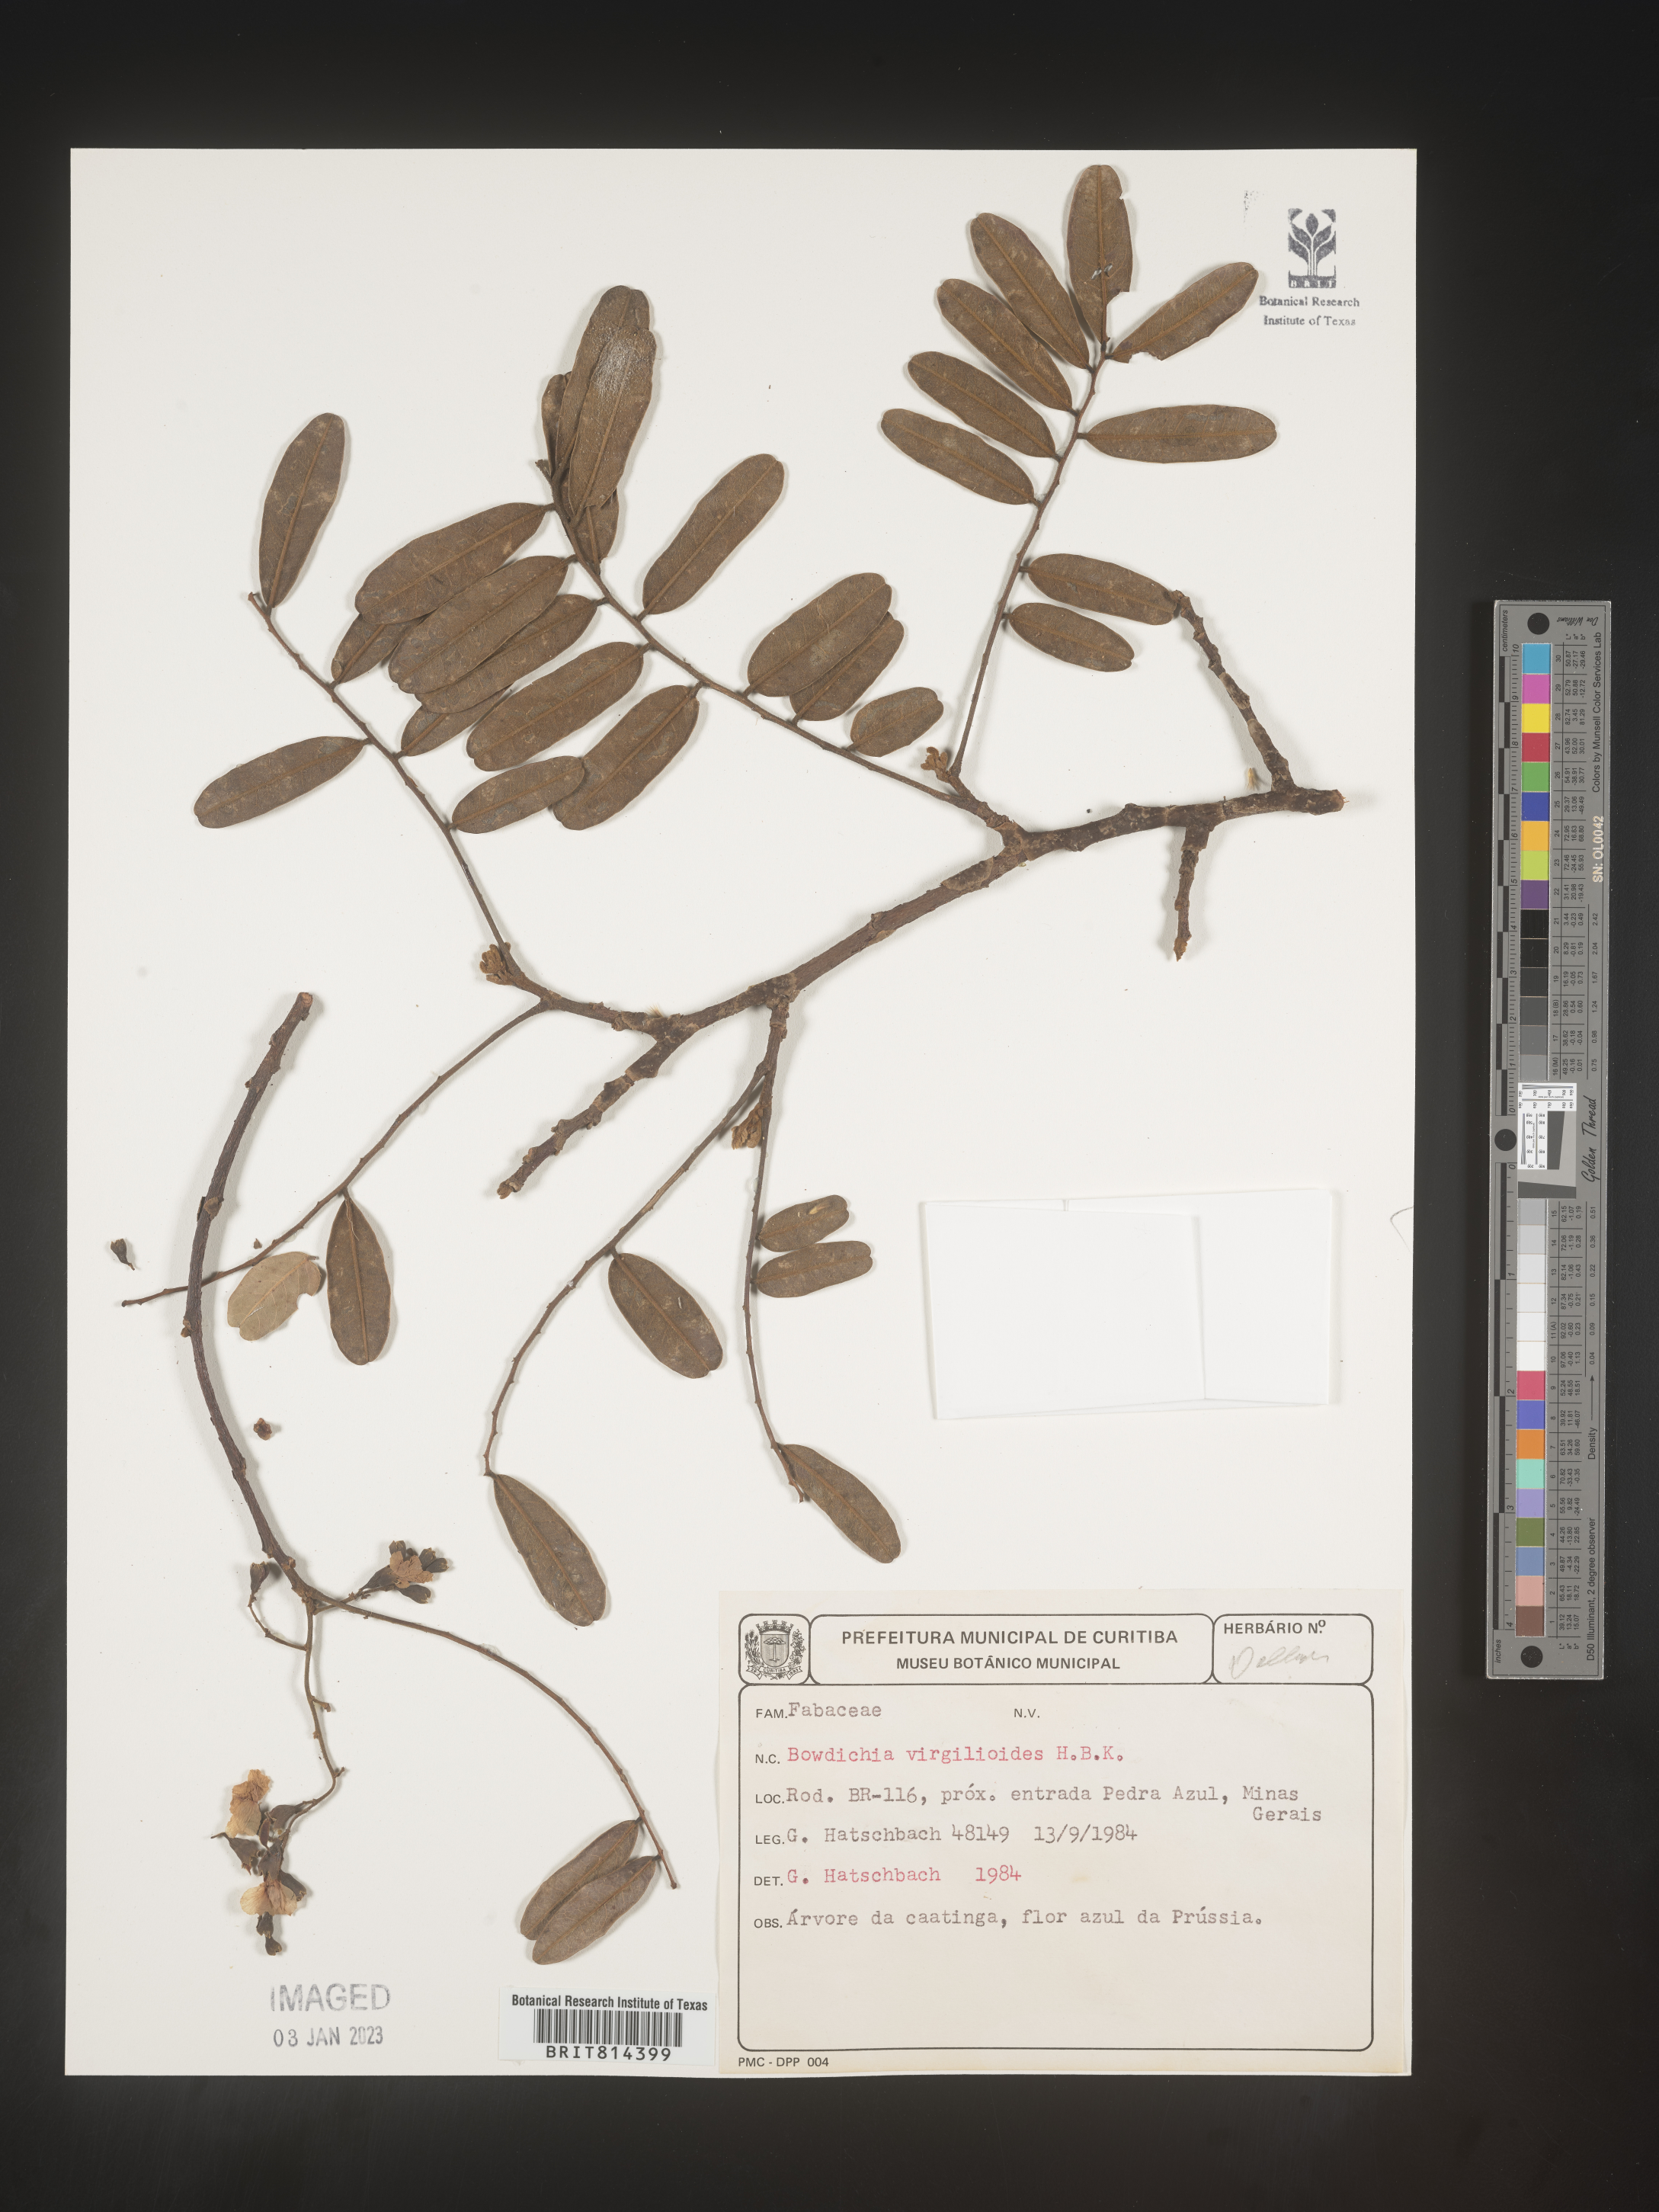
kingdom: Plantae
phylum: Tracheophyta
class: Magnoliopsida
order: Fabales
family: Fabaceae
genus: Bowdichia
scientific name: Bowdichia
